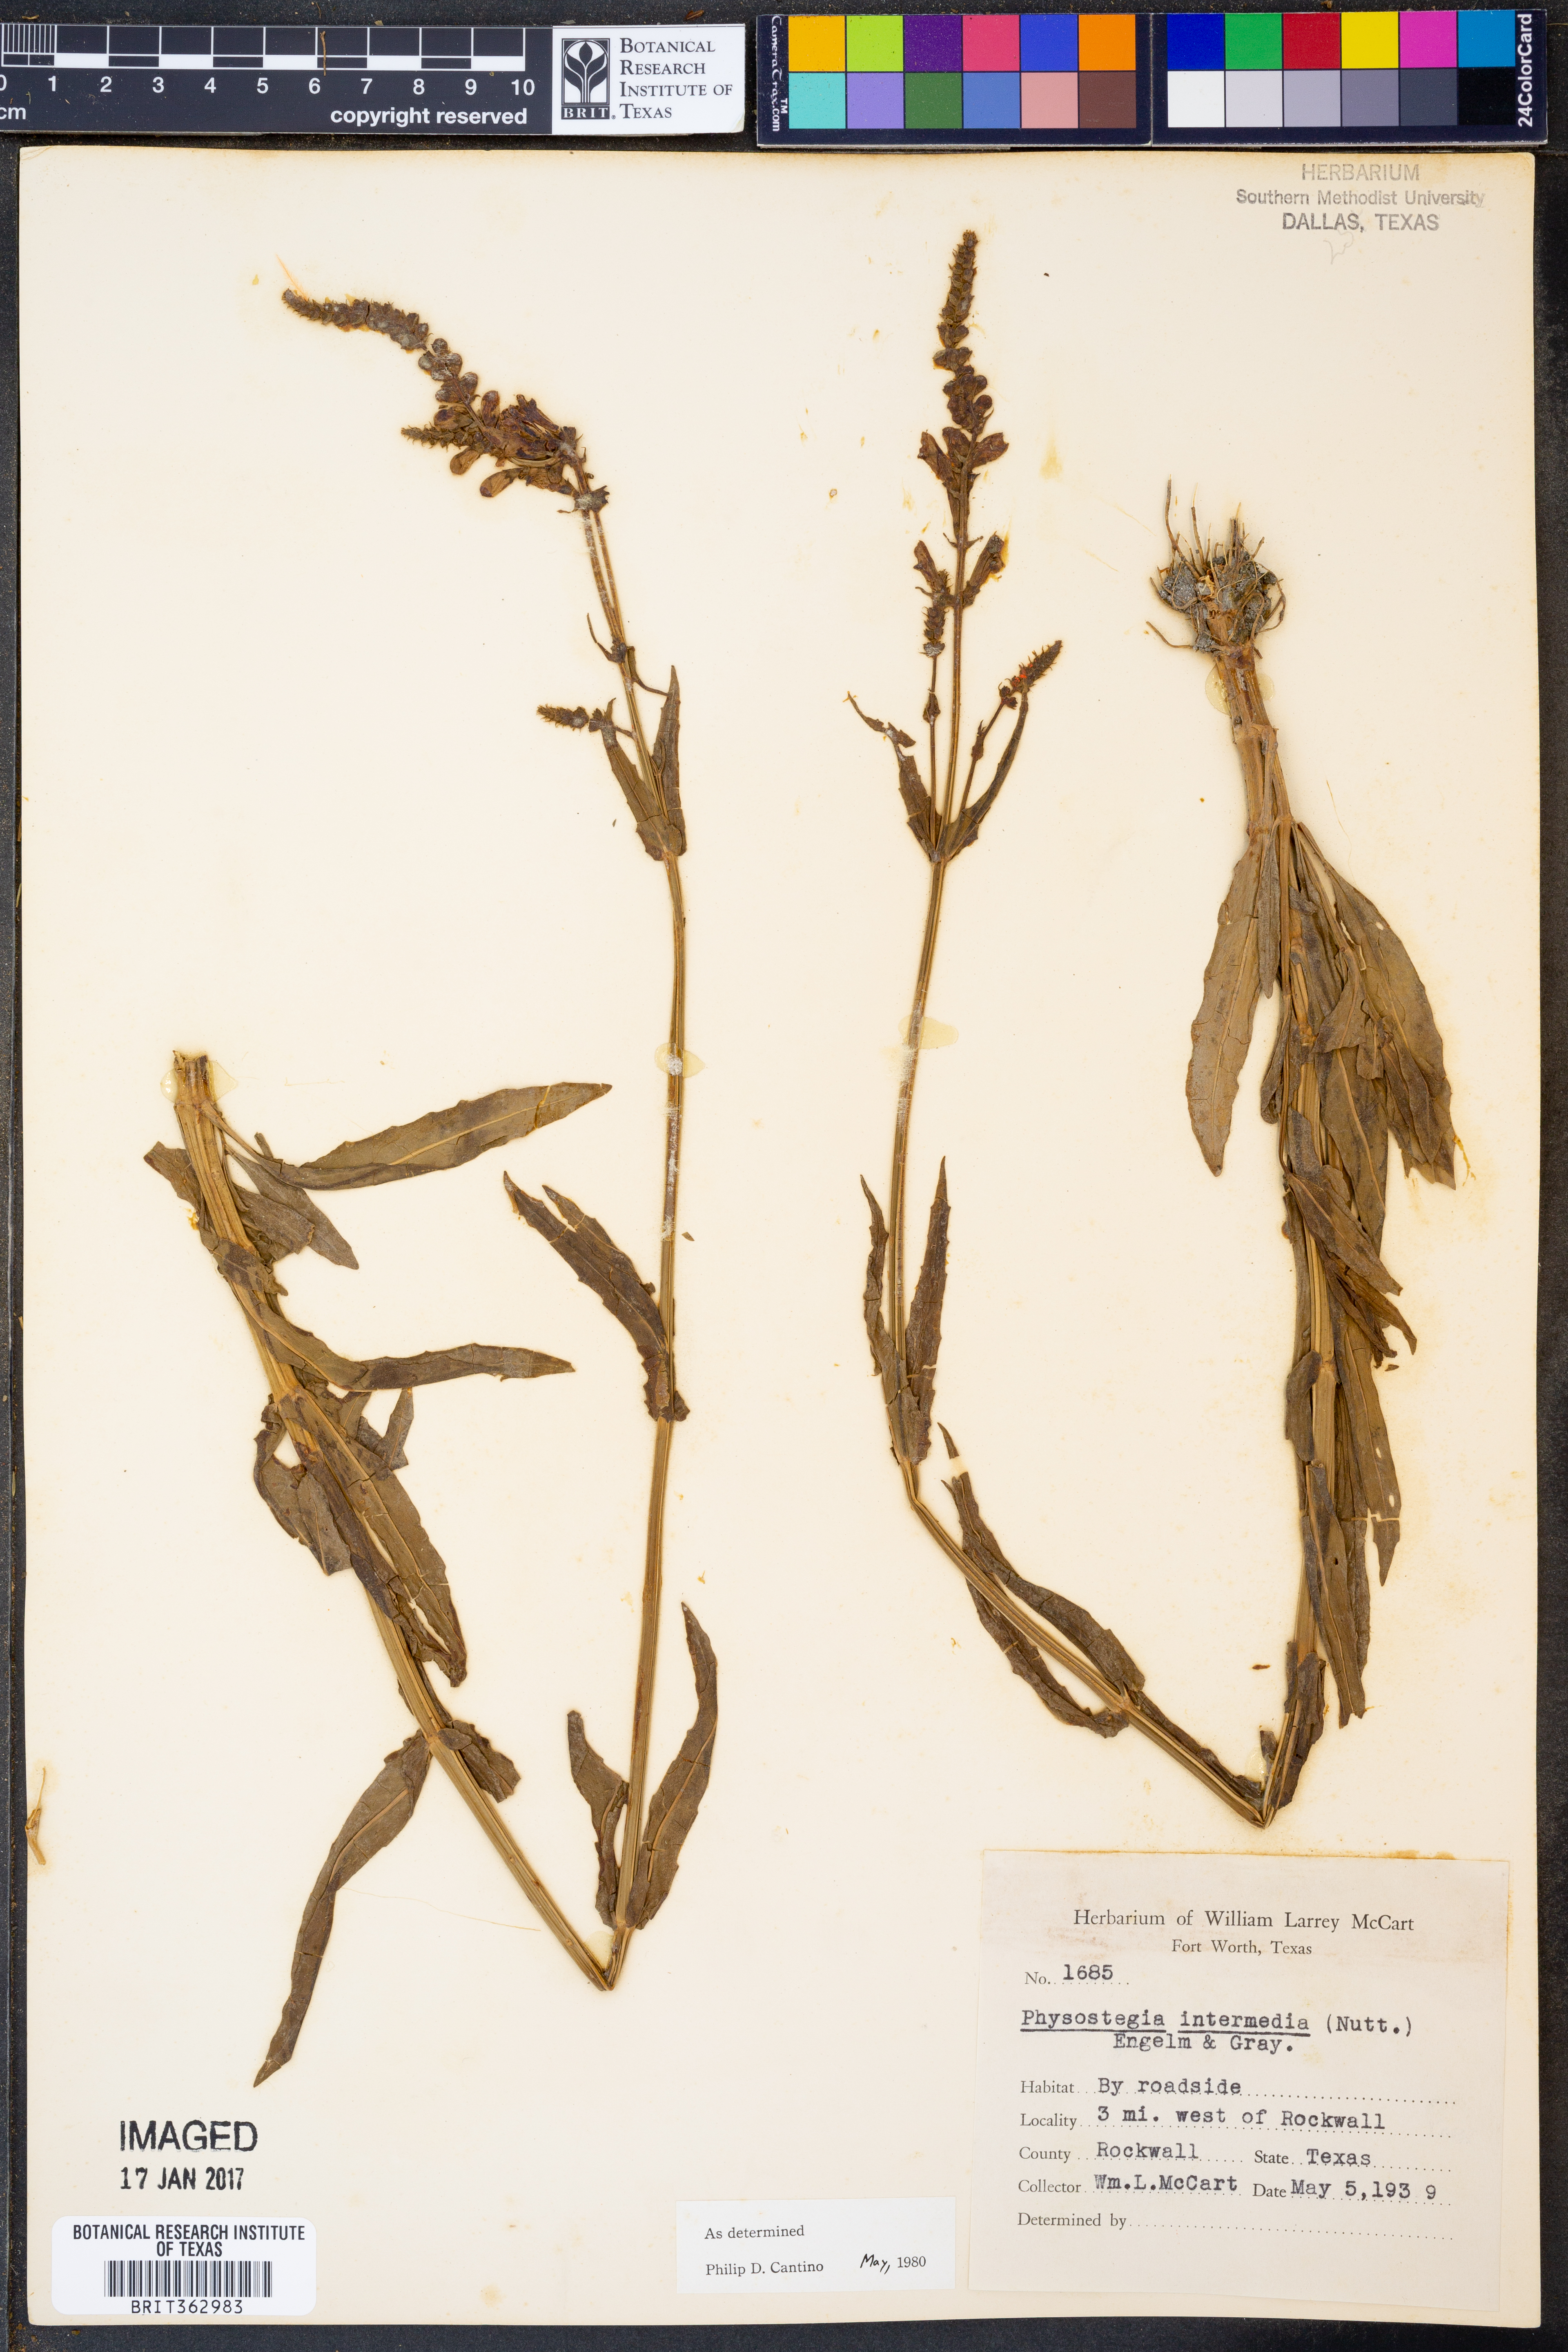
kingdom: Plantae
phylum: Tracheophyta
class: Magnoliopsida
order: Lamiales
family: Lamiaceae
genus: Physostegia
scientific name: Physostegia intermedia
